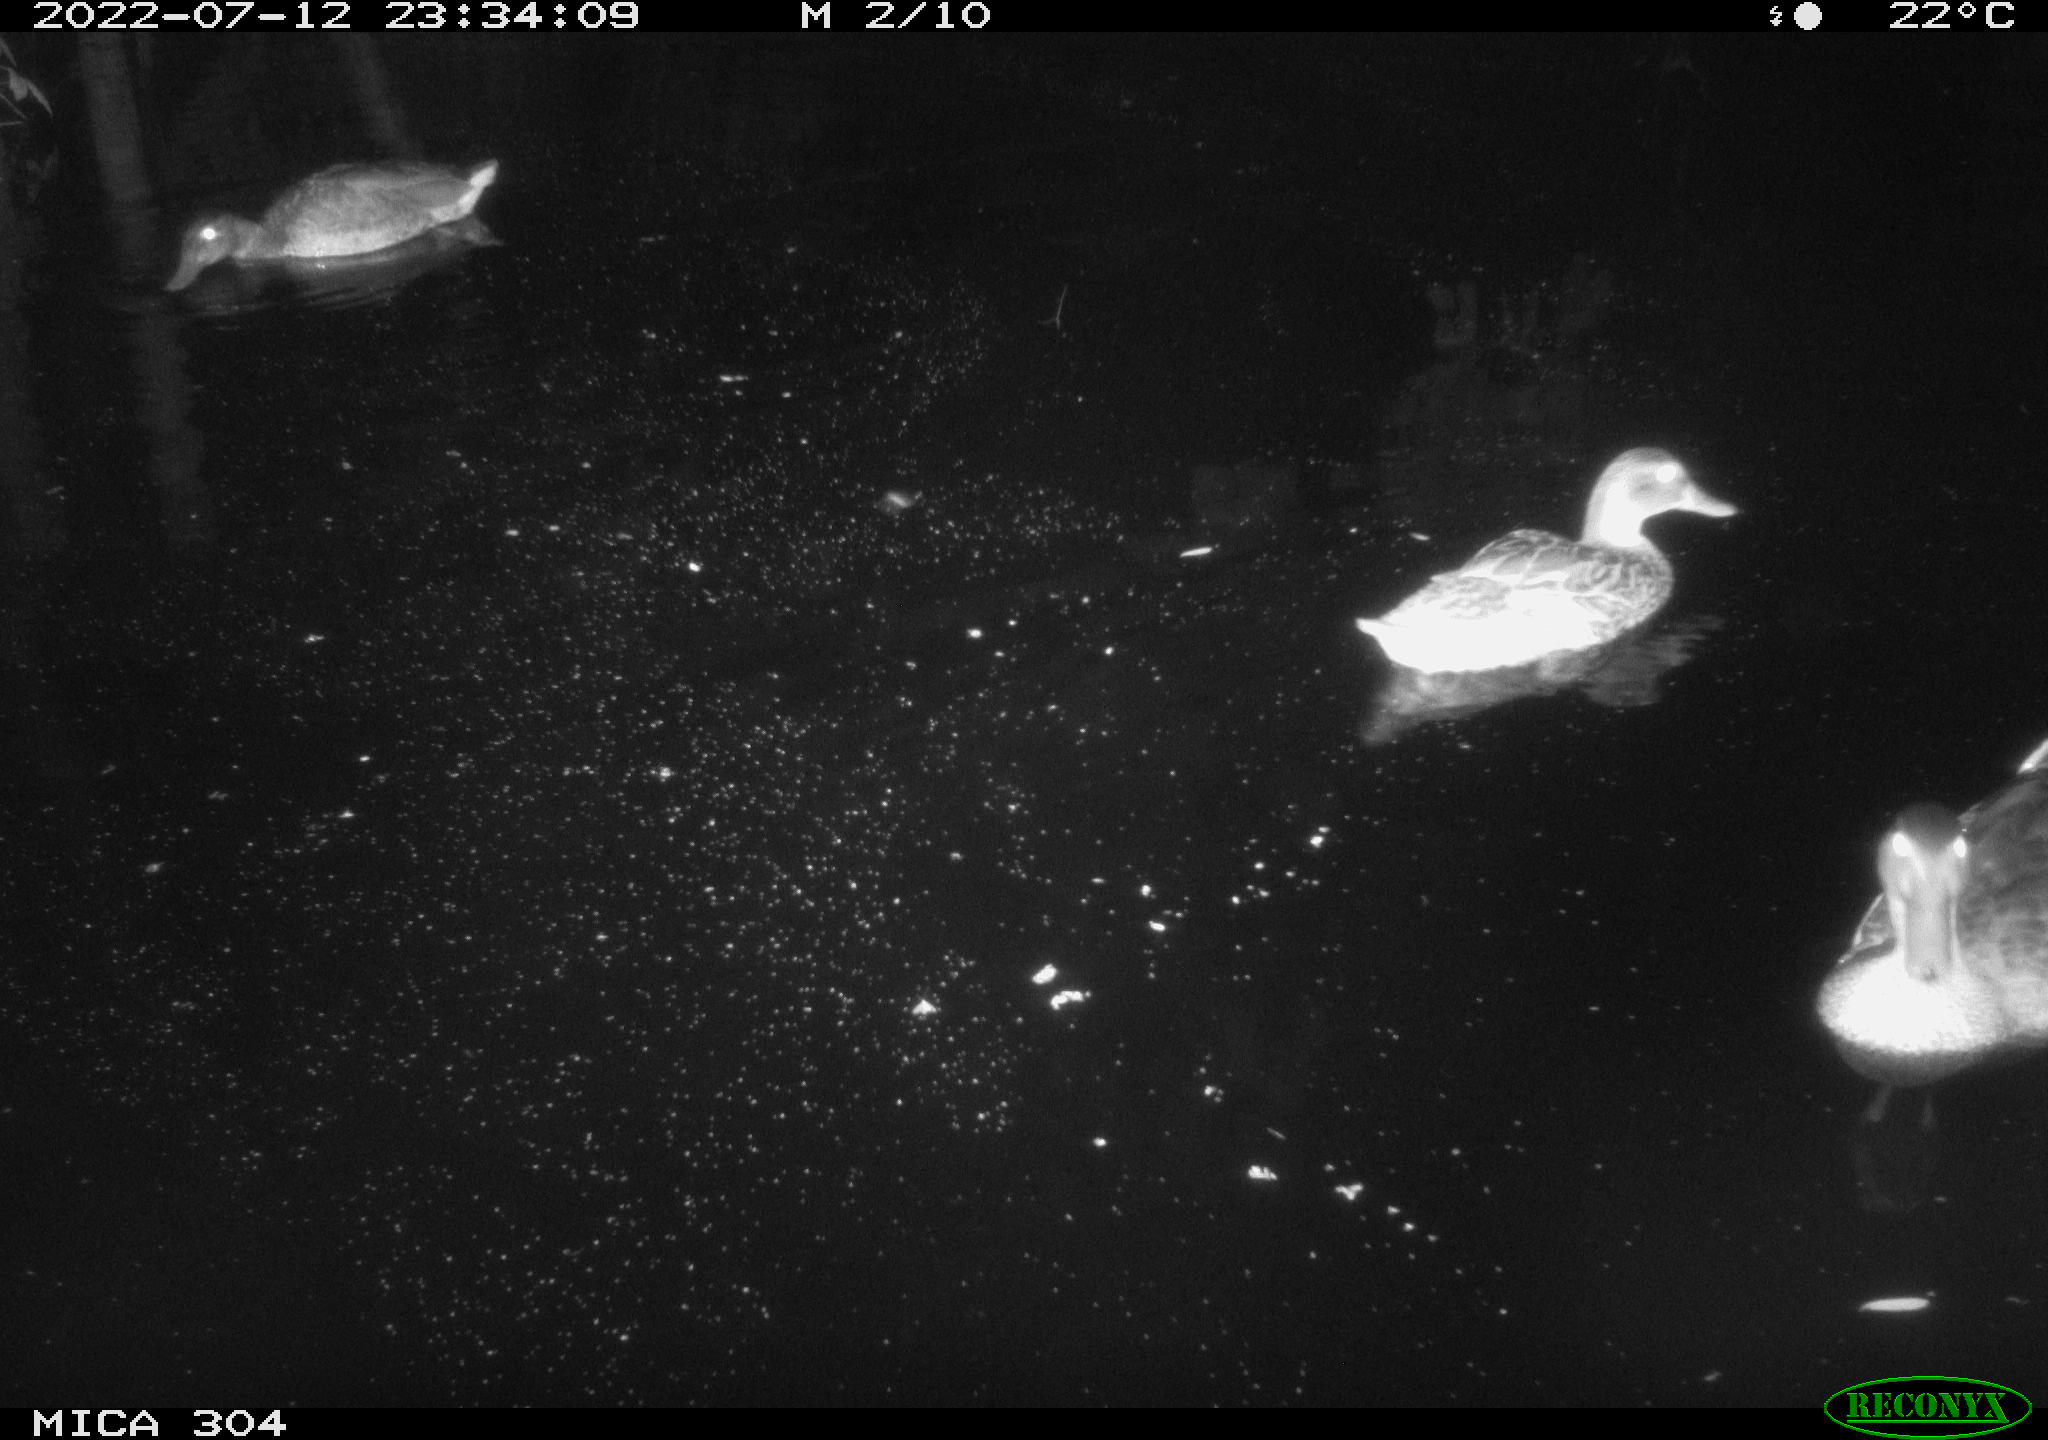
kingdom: Animalia
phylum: Chordata
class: Aves
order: Anseriformes
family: Anatidae
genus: Mareca
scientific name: Mareca strepera
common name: Gadwall
